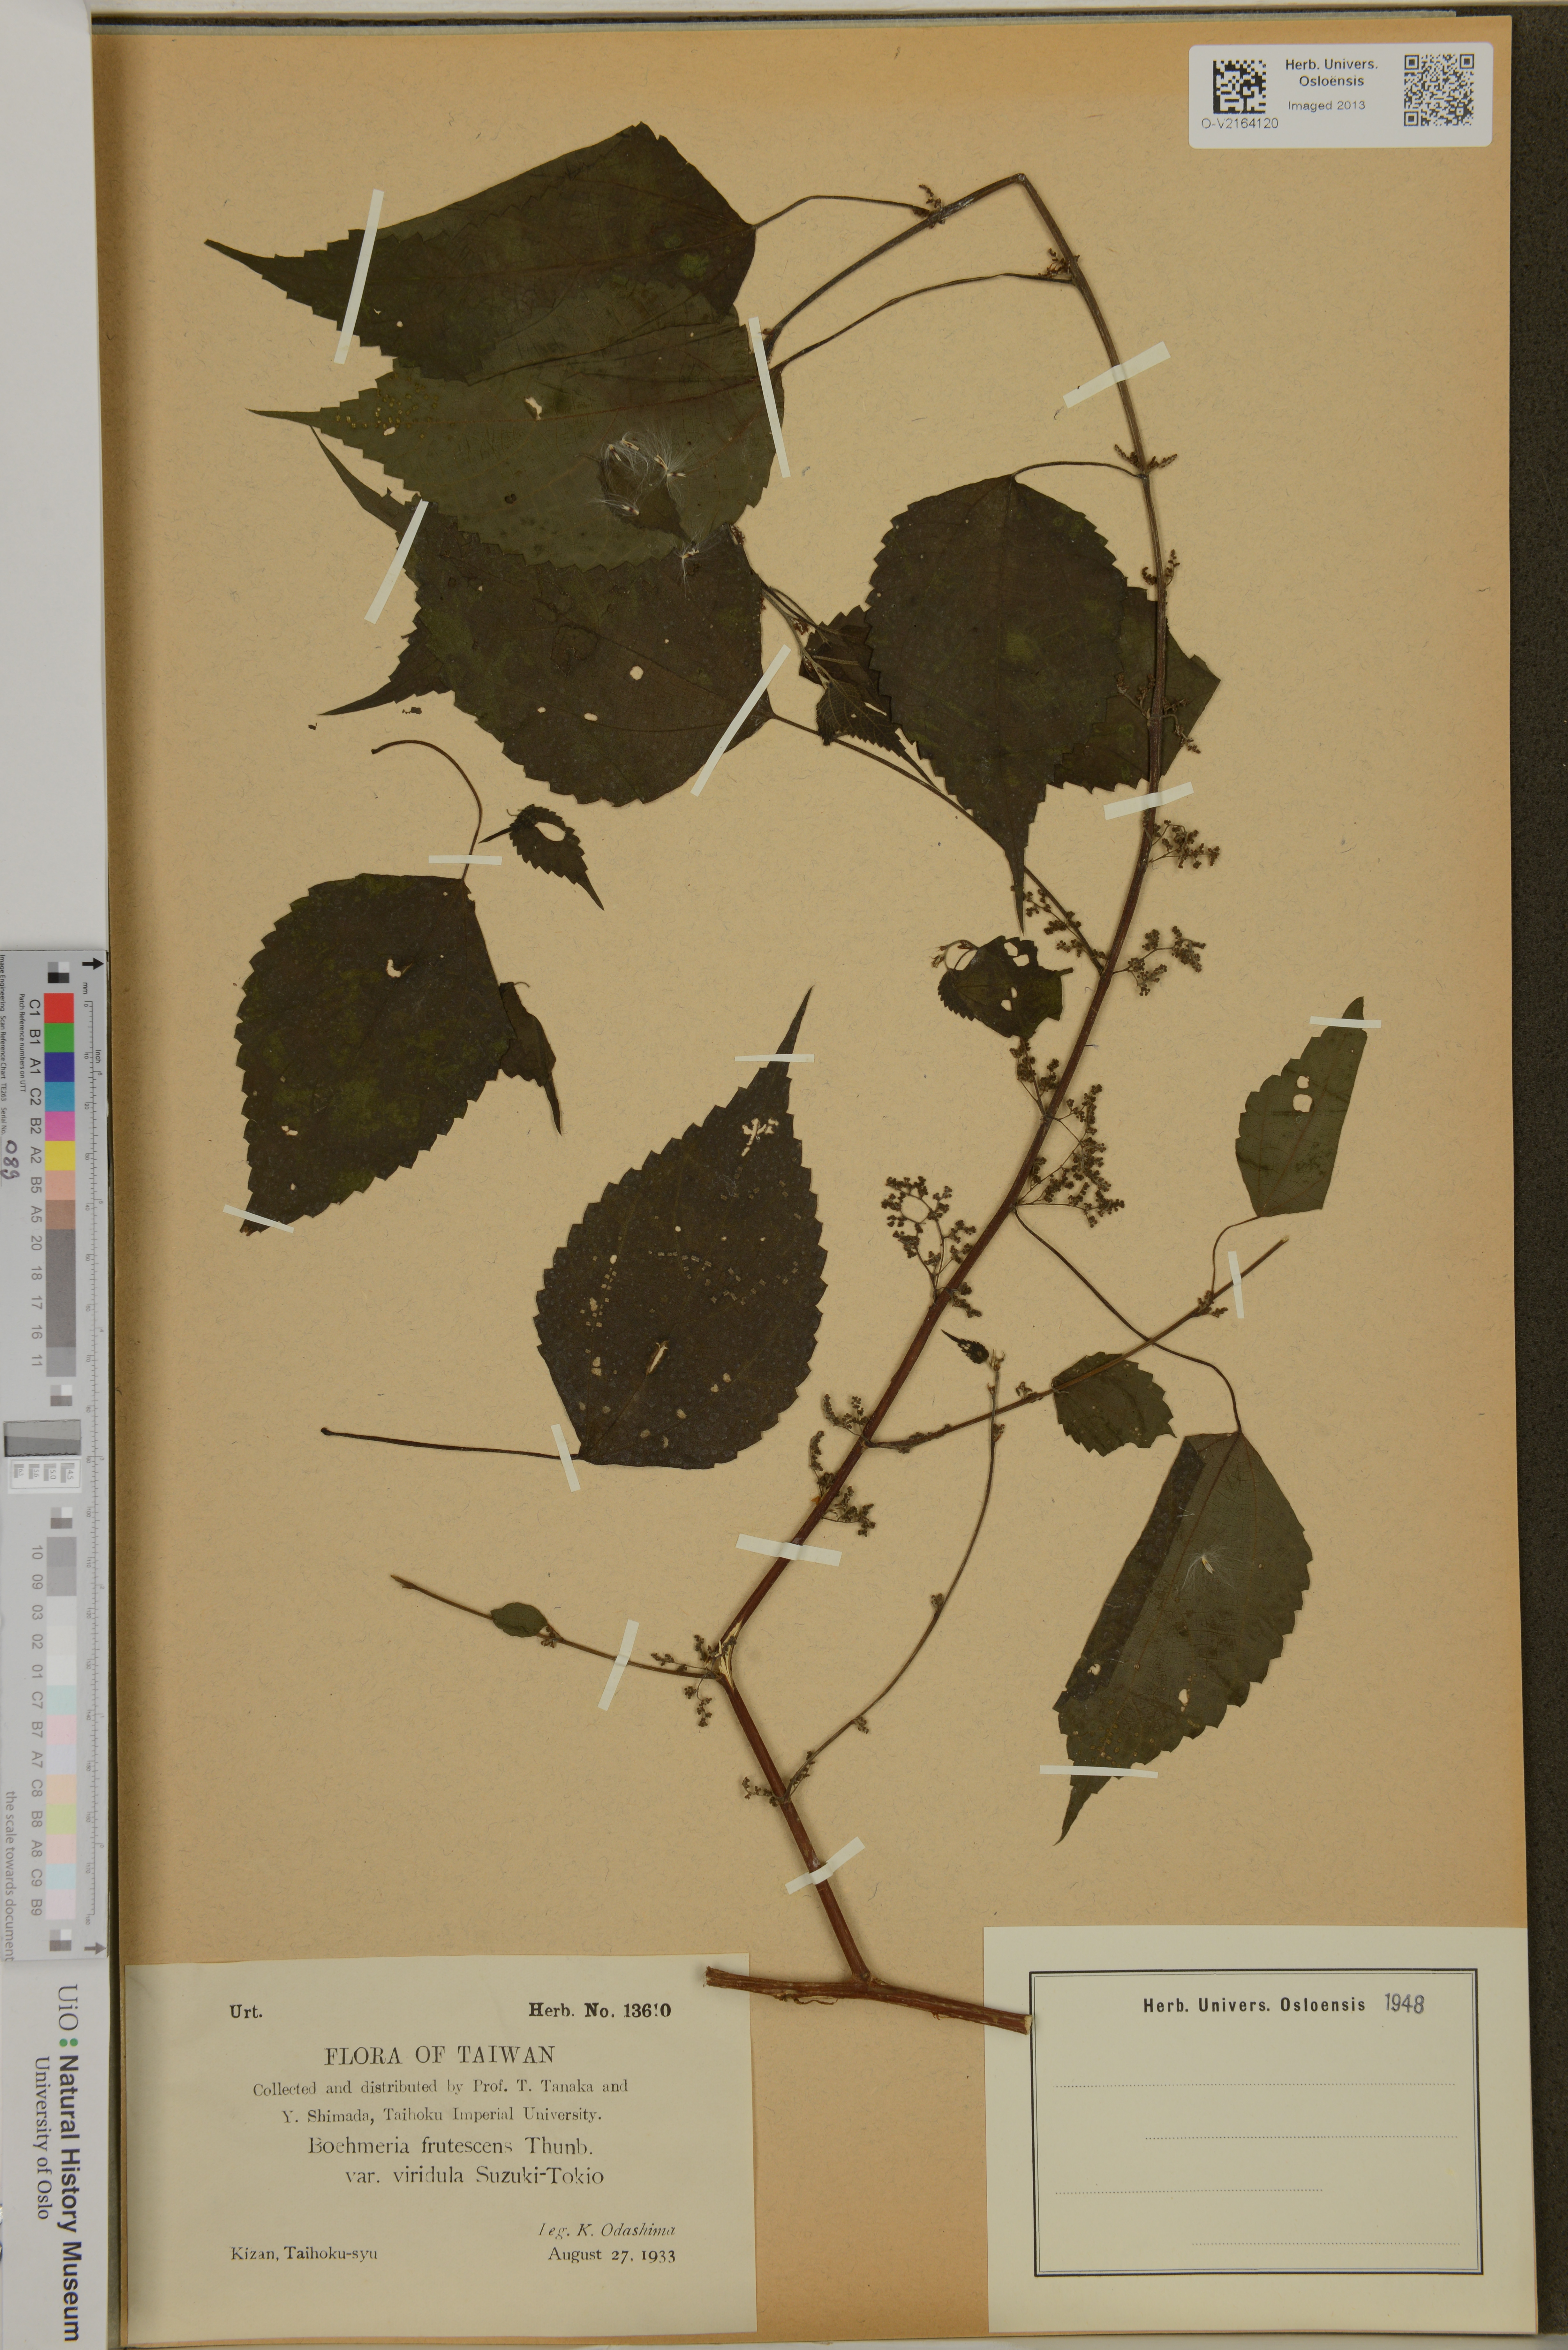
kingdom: Plantae
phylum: Tracheophyta
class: Magnoliopsida
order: Rosales
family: Urticaceae
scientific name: Urticaceae
